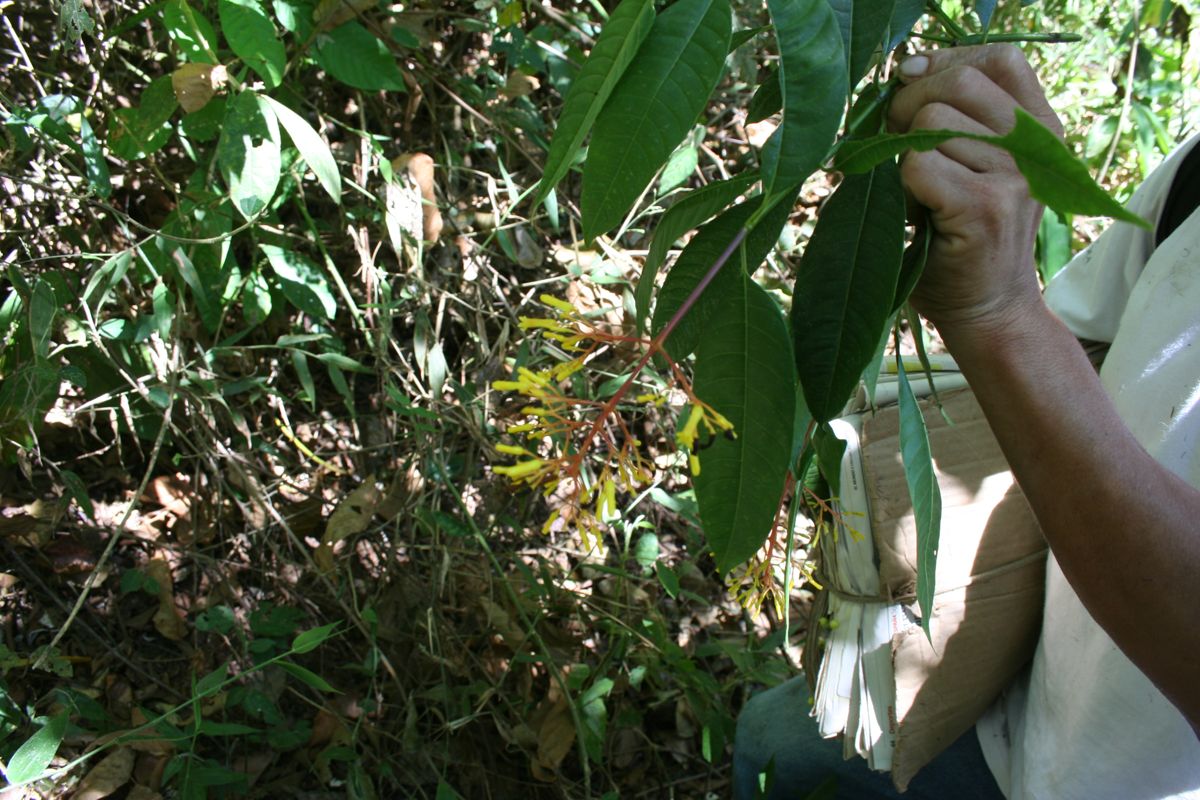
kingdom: Plantae
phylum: Tracheophyta
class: Magnoliopsida
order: Gentianales
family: Rubiaceae
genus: Palicourea
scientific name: Palicourea padifolia
